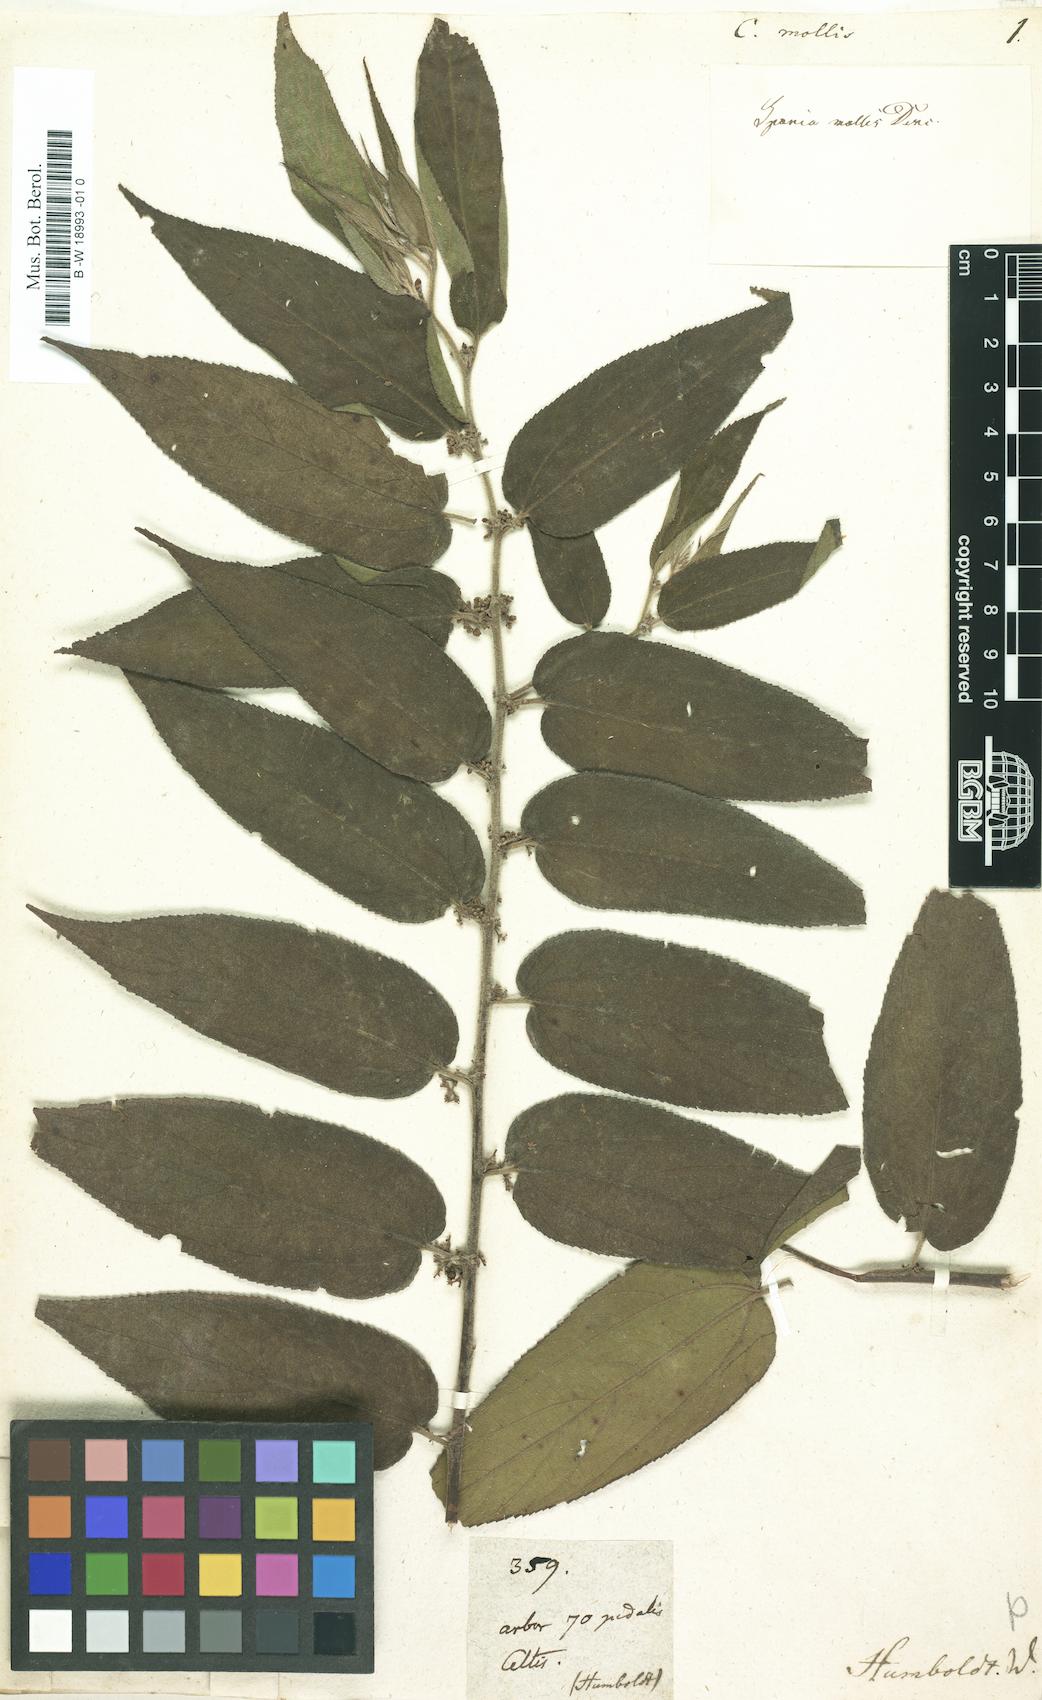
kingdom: Plantae
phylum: Tracheophyta
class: Magnoliopsida
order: Rosales
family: Cannabaceae
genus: Trema
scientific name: Trema micranthum
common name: Jamaican nettletree
